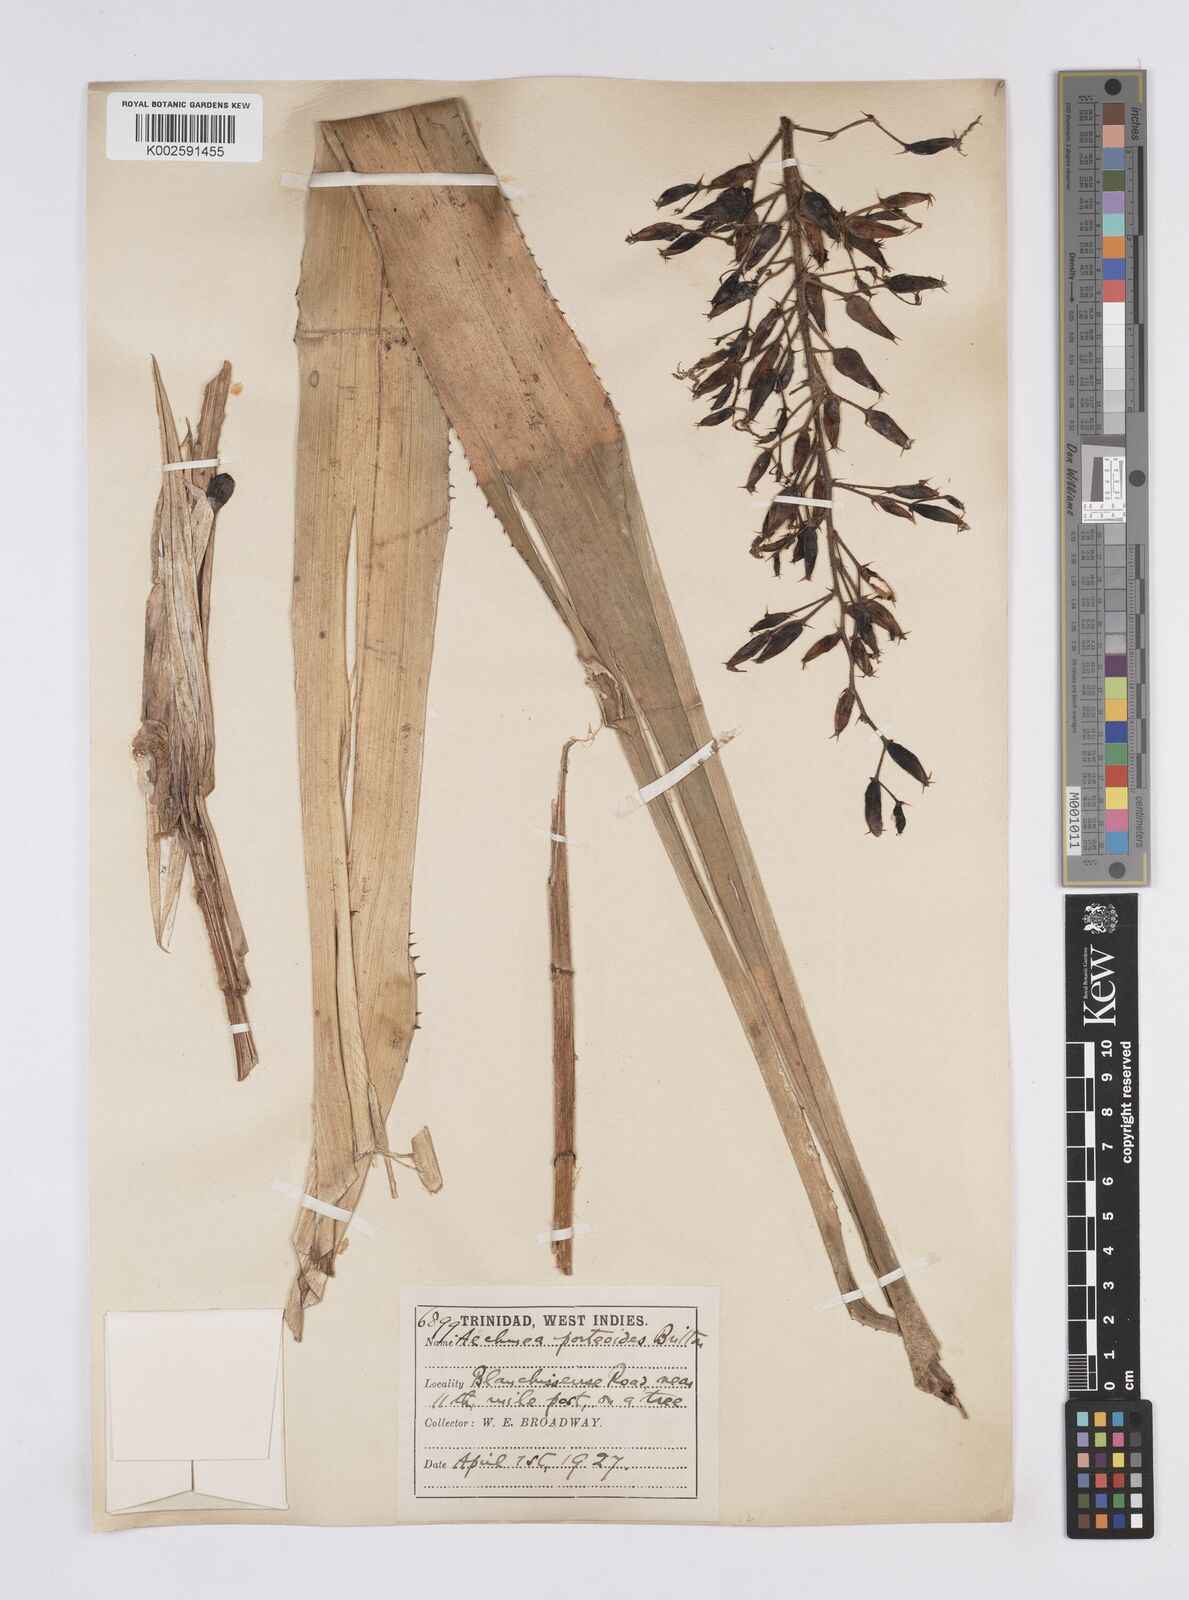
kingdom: Plantae
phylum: Tracheophyta
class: Liliopsida
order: Poales
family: Bromeliaceae
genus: Aechmea
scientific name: Aechmea fendleri
